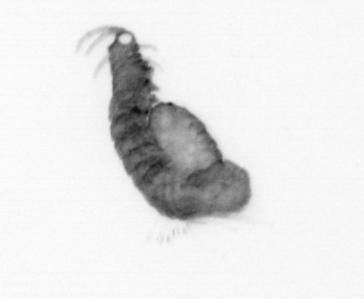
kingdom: Animalia
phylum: Annelida
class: Polychaeta
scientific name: Polychaeta
